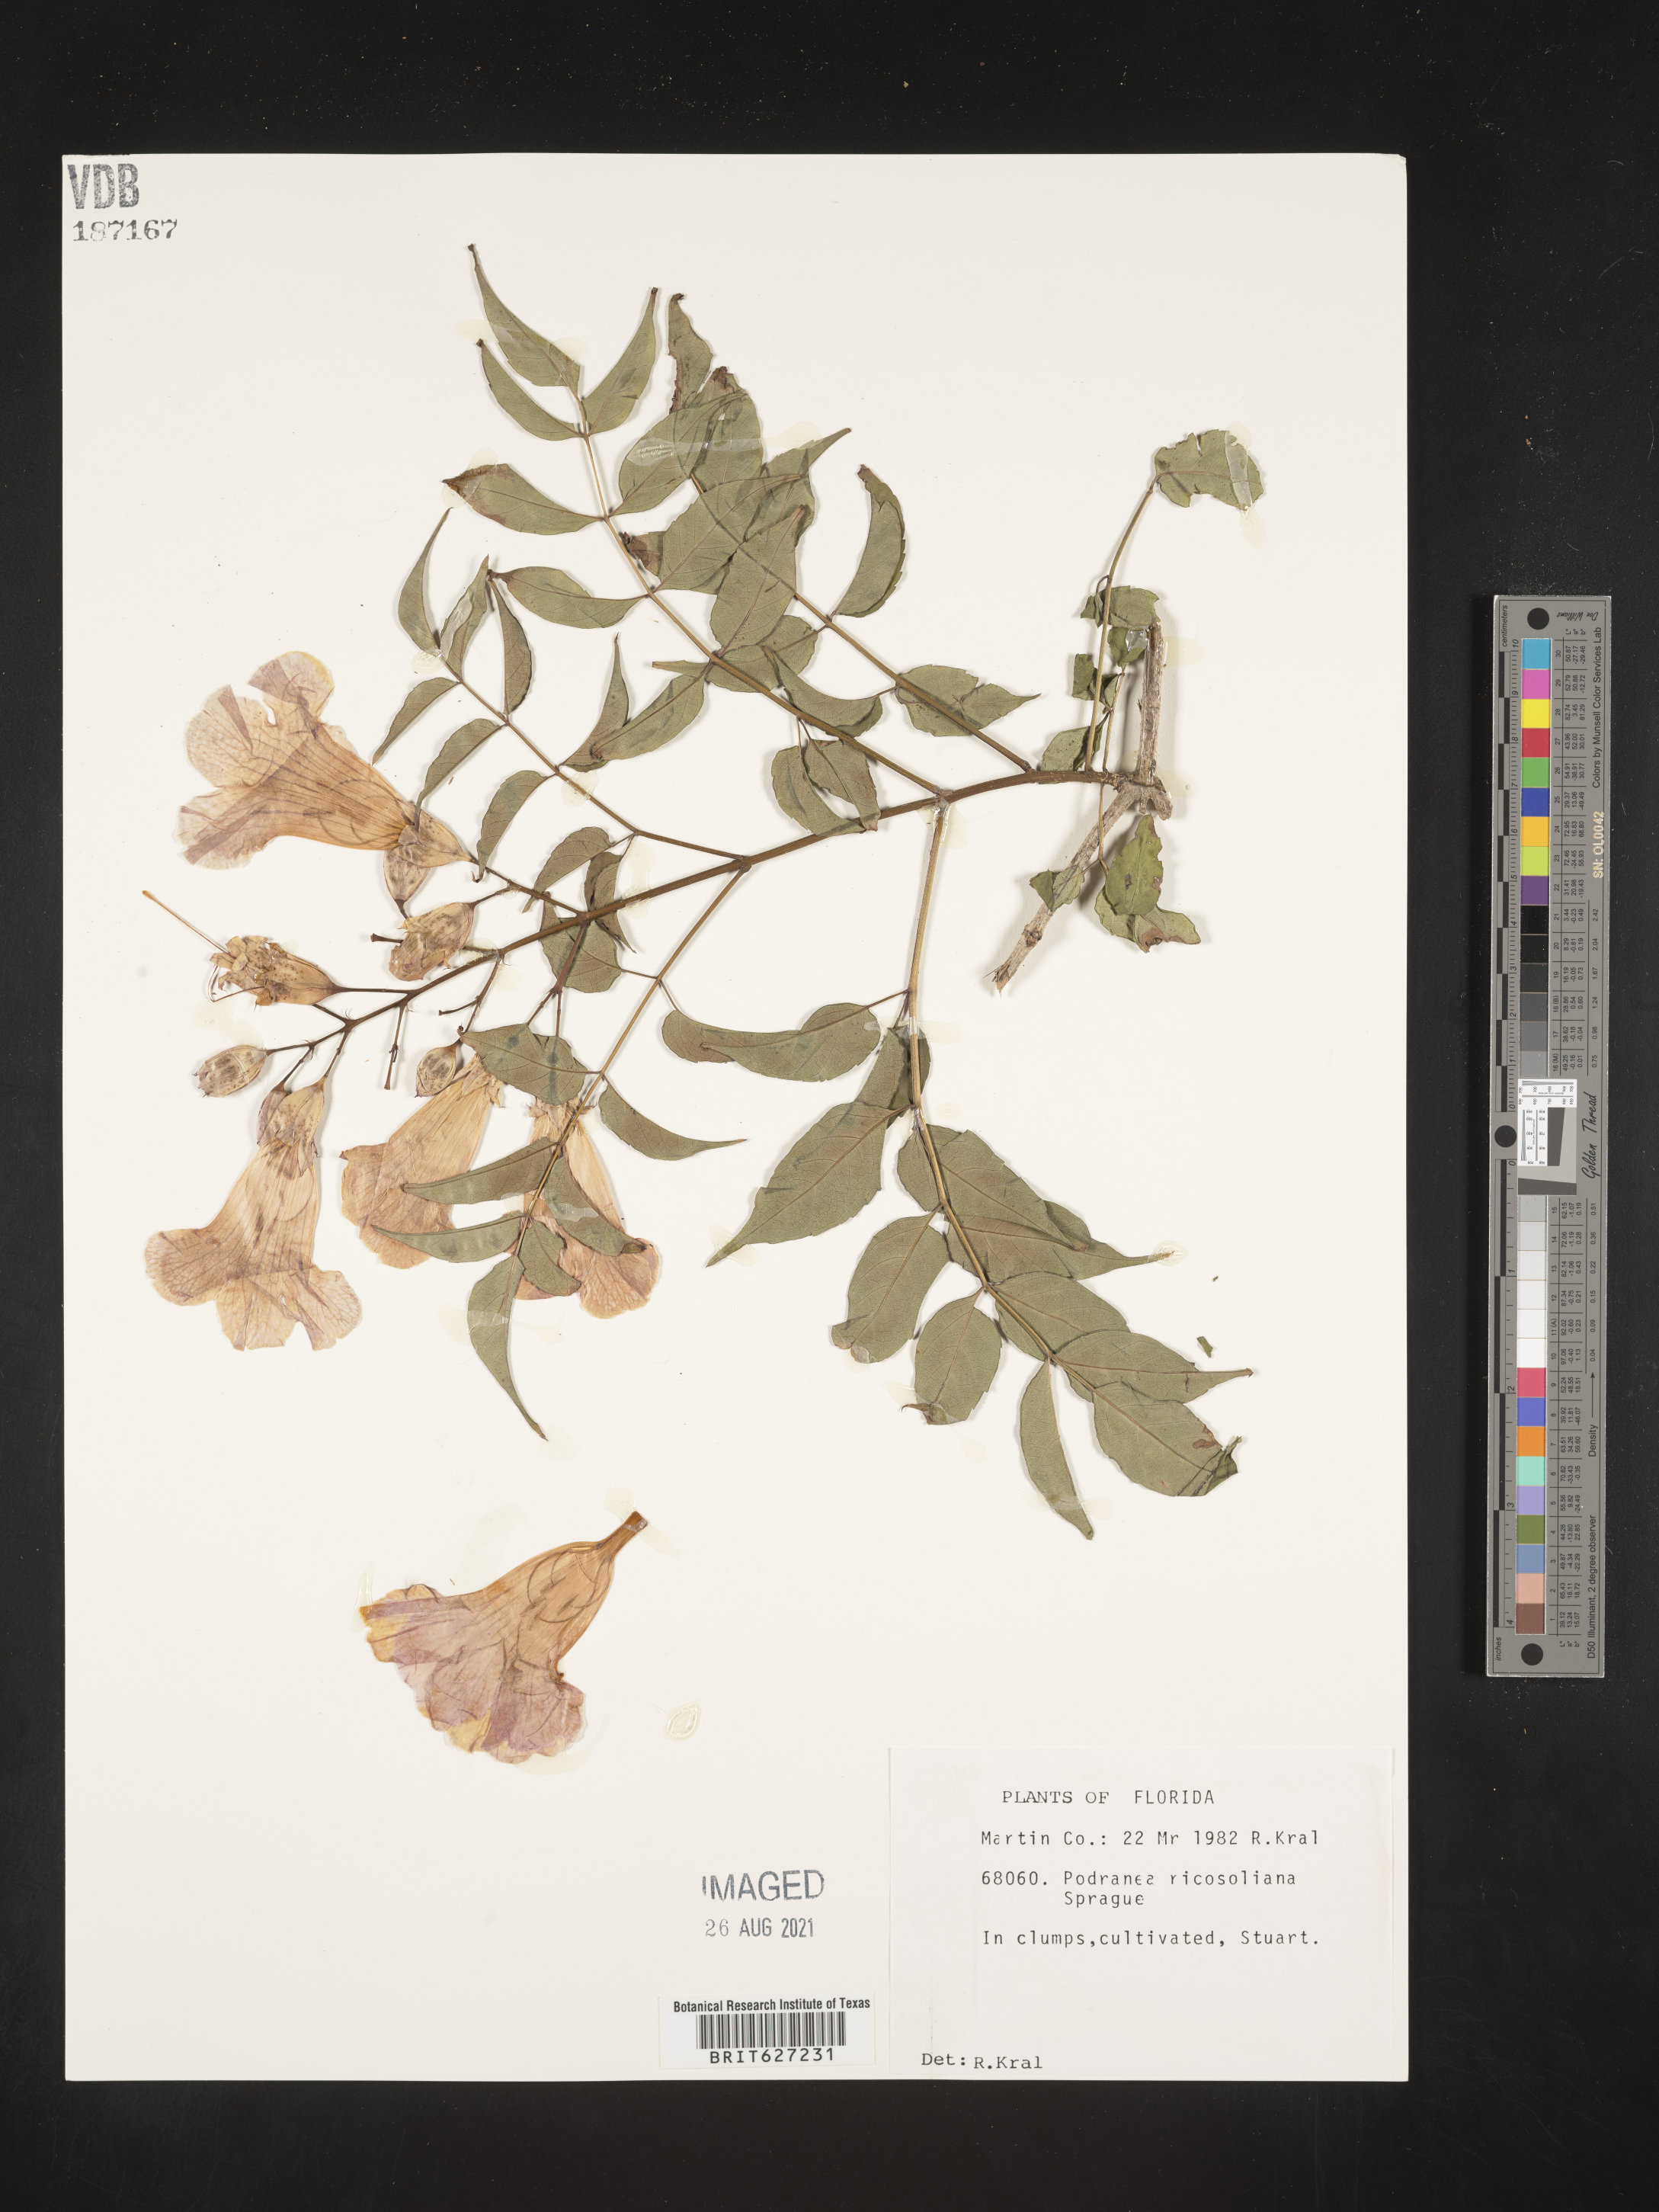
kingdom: Plantae
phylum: Tracheophyta
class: Magnoliopsida
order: Lamiales
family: Bignoniaceae
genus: Podranea
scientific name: Podranea ricasoliana
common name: Zimbabwe creeper
